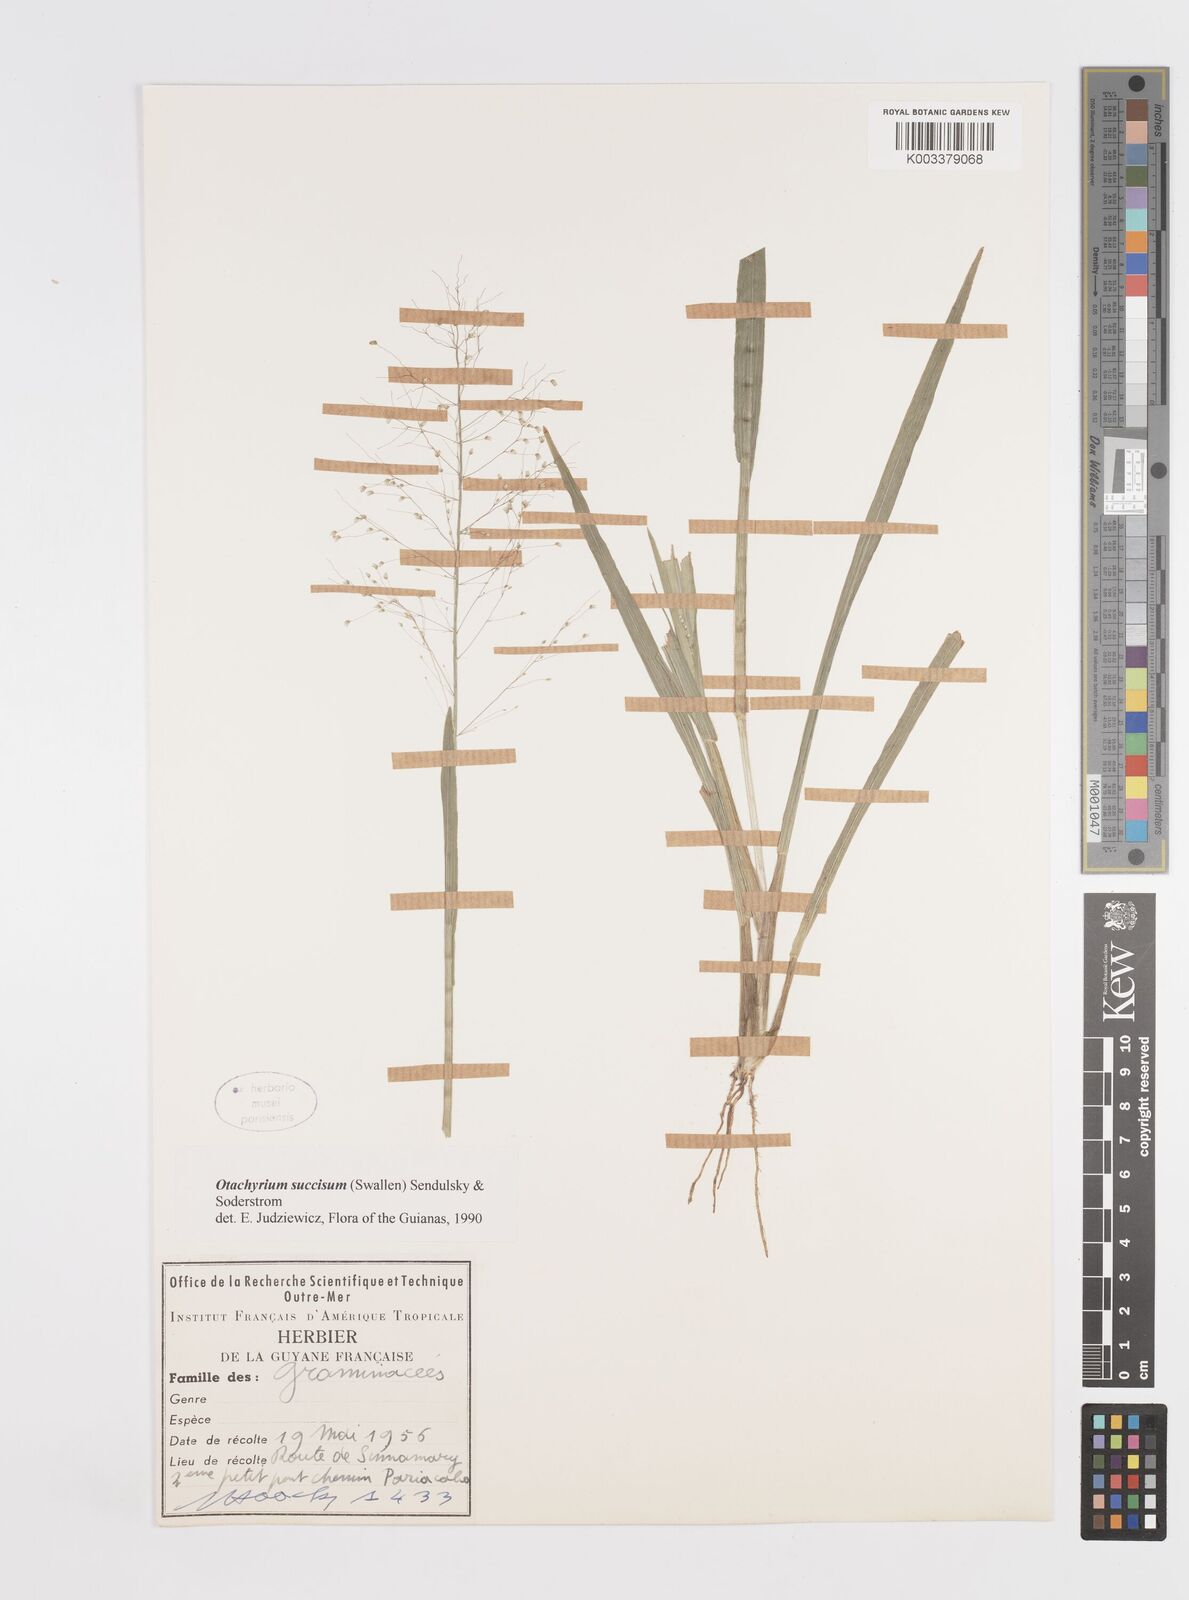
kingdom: Plantae
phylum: Tracheophyta
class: Liliopsida
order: Poales
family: Poaceae
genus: Otachyrium
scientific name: Otachyrium inaequale
